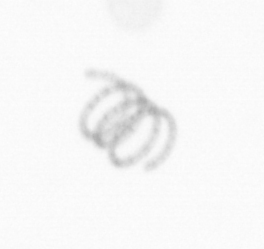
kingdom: Chromista
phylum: Ochrophyta
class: Bacillariophyceae
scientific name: Bacillariophyceae
